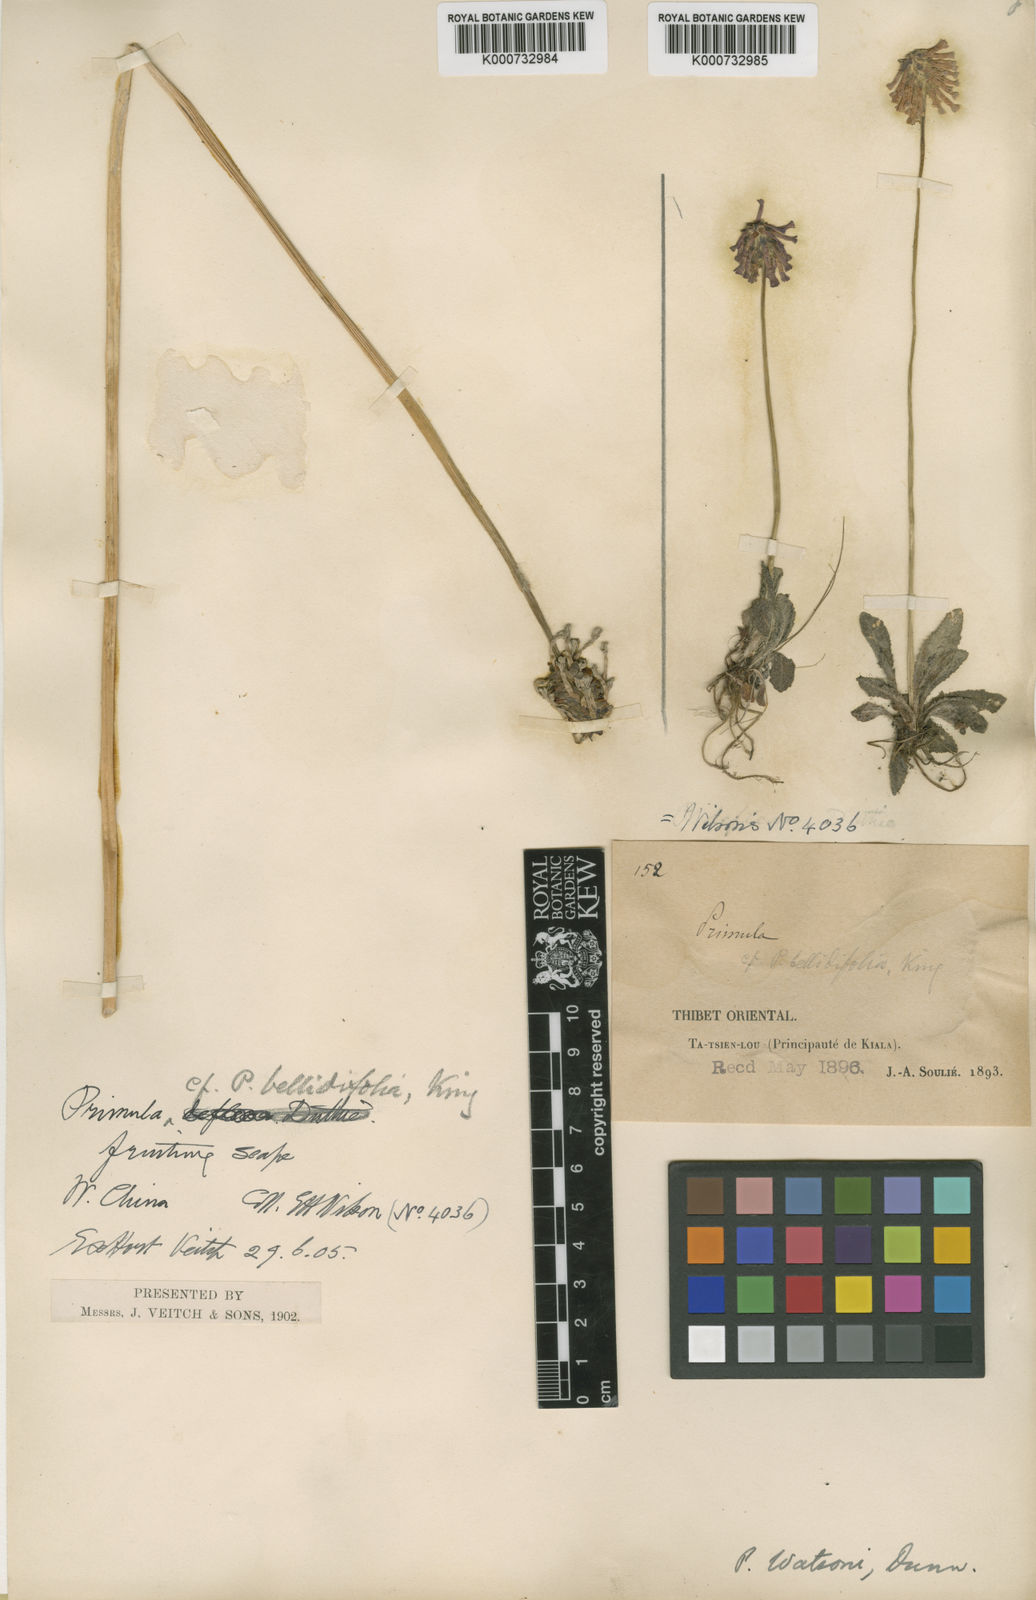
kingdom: Plantae
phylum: Tracheophyta
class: Magnoliopsida
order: Ericales
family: Primulaceae
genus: Primula
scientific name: Primula watsonii
